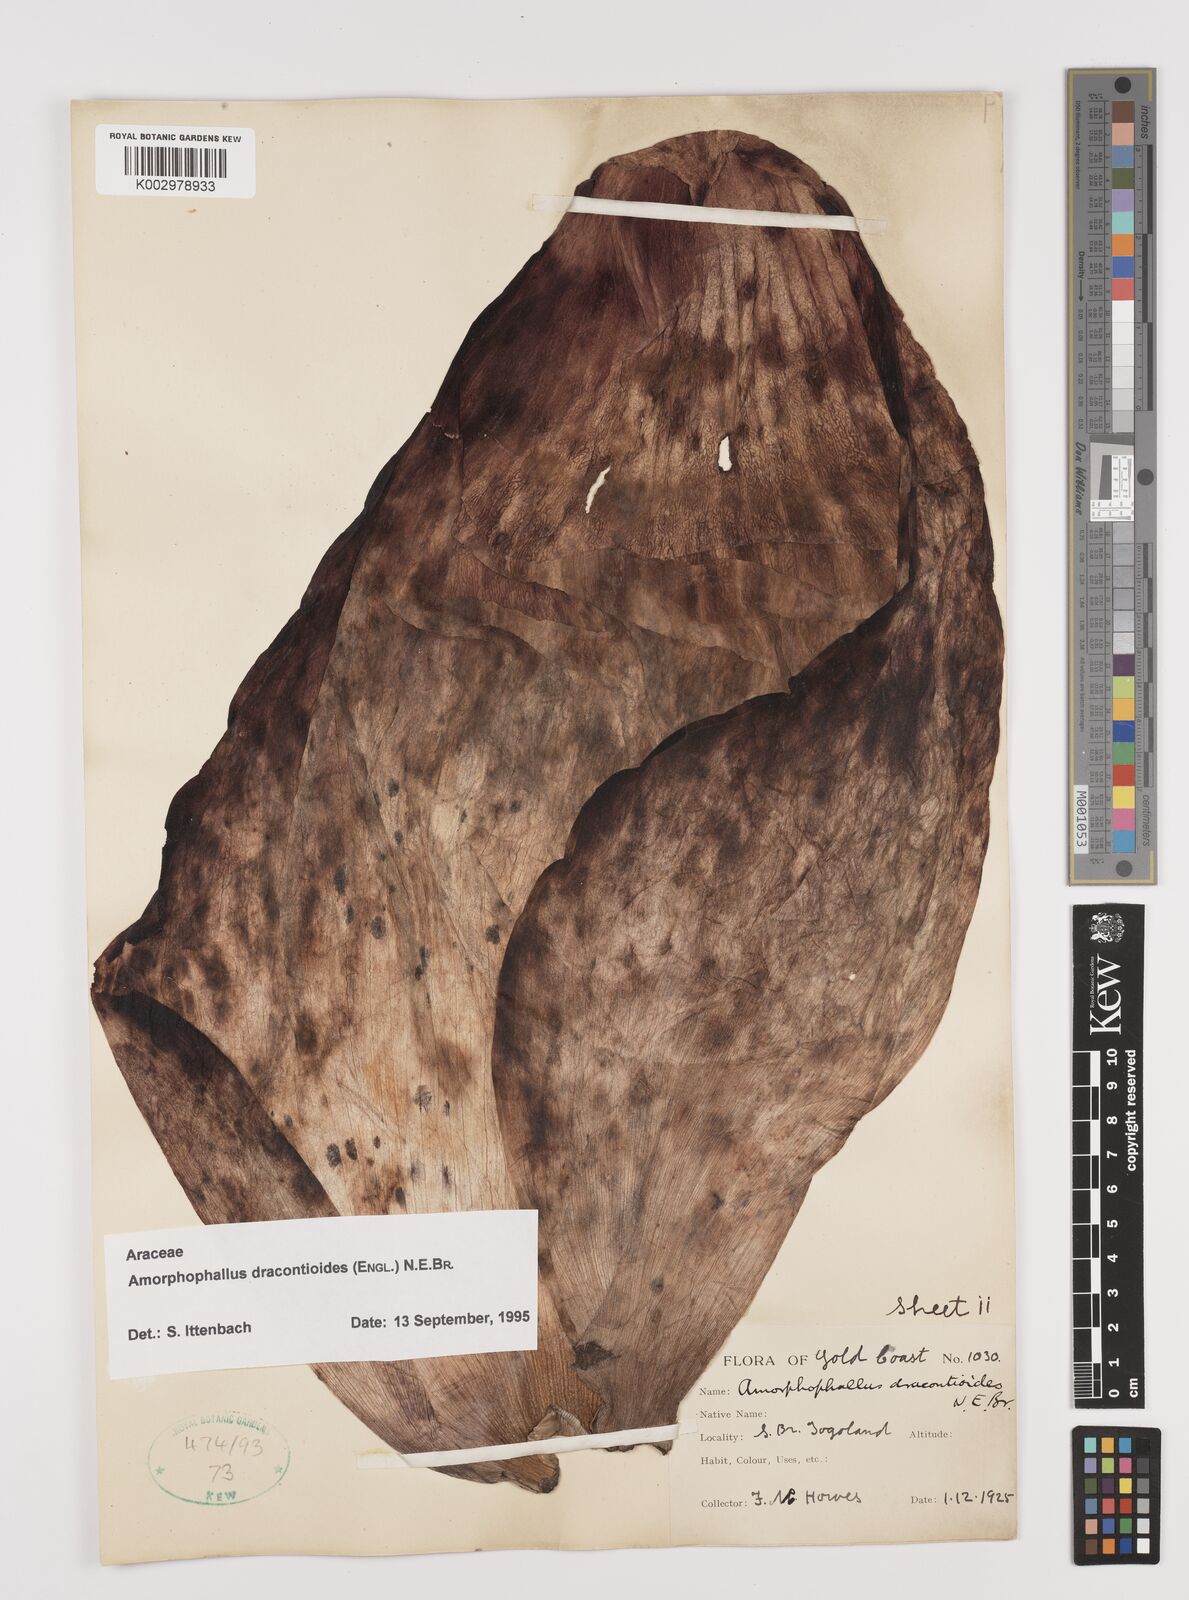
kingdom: Plantae
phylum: Tracheophyta
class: Liliopsida
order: Alismatales
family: Araceae
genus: Amorphophallus
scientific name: Amorphophallus dracontioides
